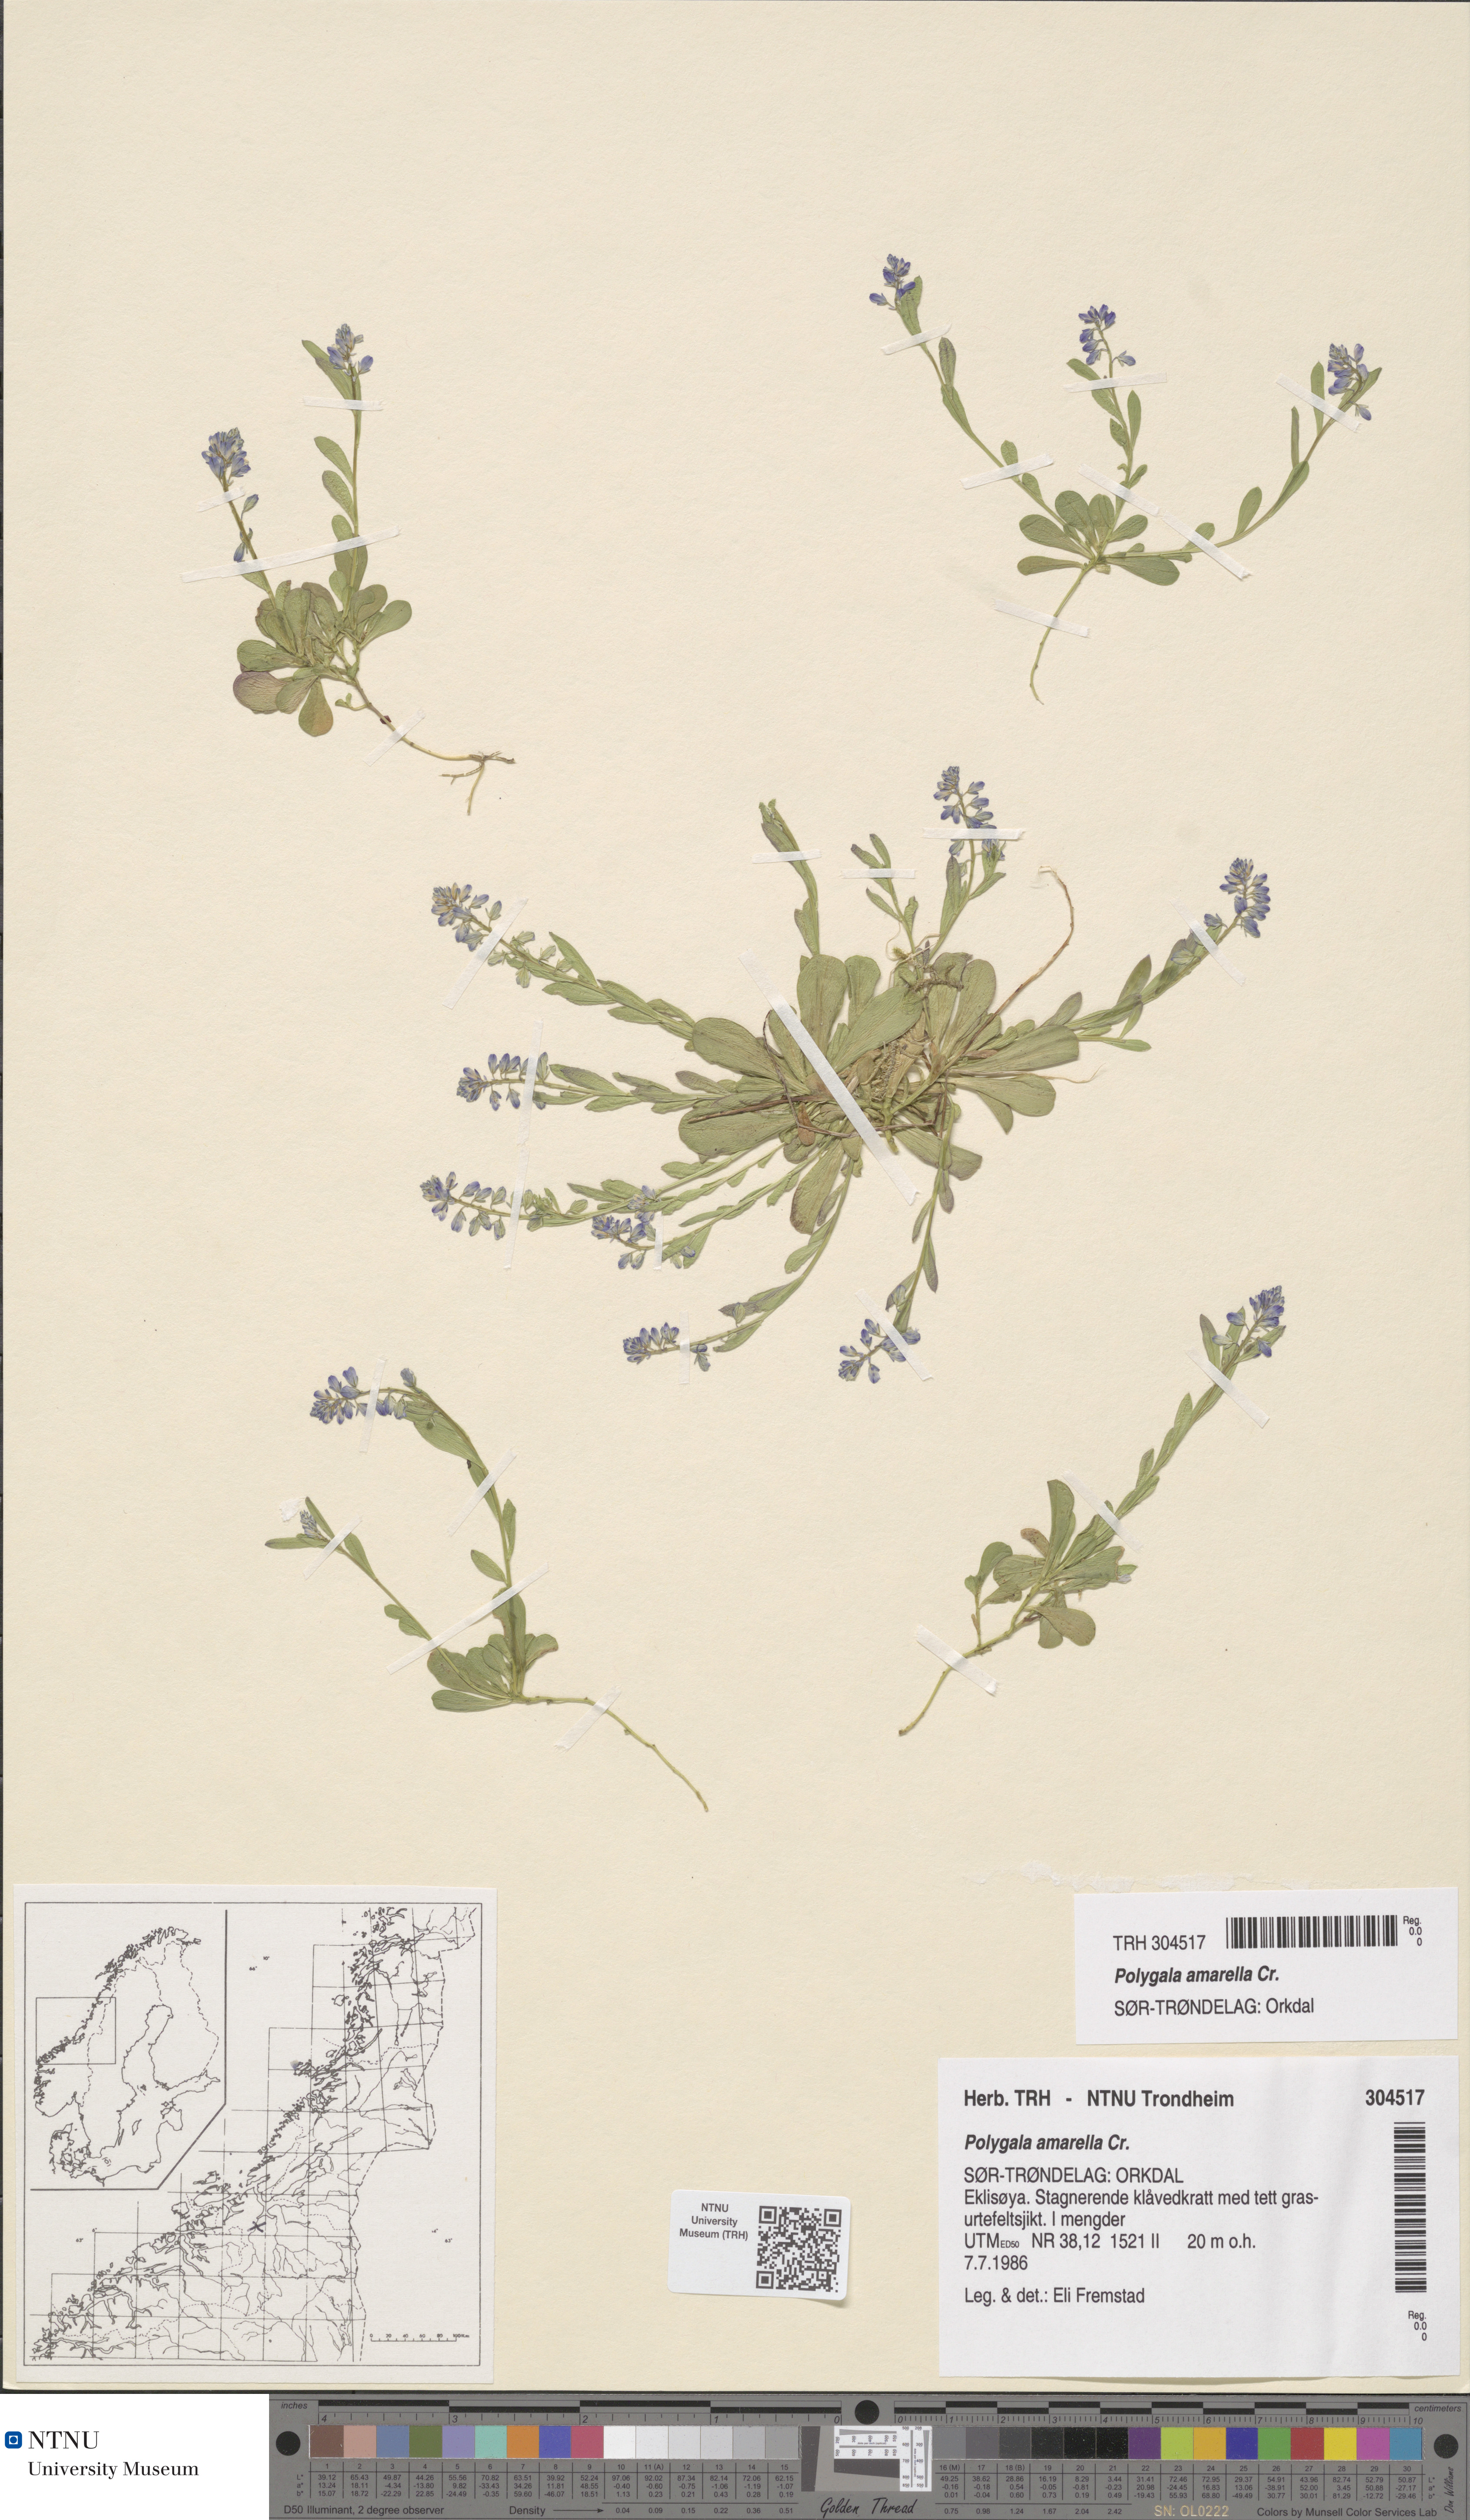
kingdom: Plantae
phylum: Tracheophyta
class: Magnoliopsida
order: Fabales
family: Polygalaceae
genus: Polygala
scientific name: Polygala amarella
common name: Dwarf milkwort
